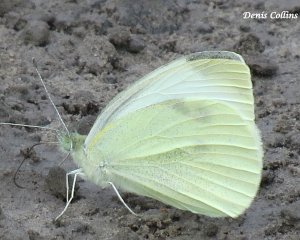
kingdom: Animalia
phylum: Arthropoda
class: Insecta
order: Lepidoptera
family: Pieridae
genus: Pieris
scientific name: Pieris rapae
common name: Cabbage White
